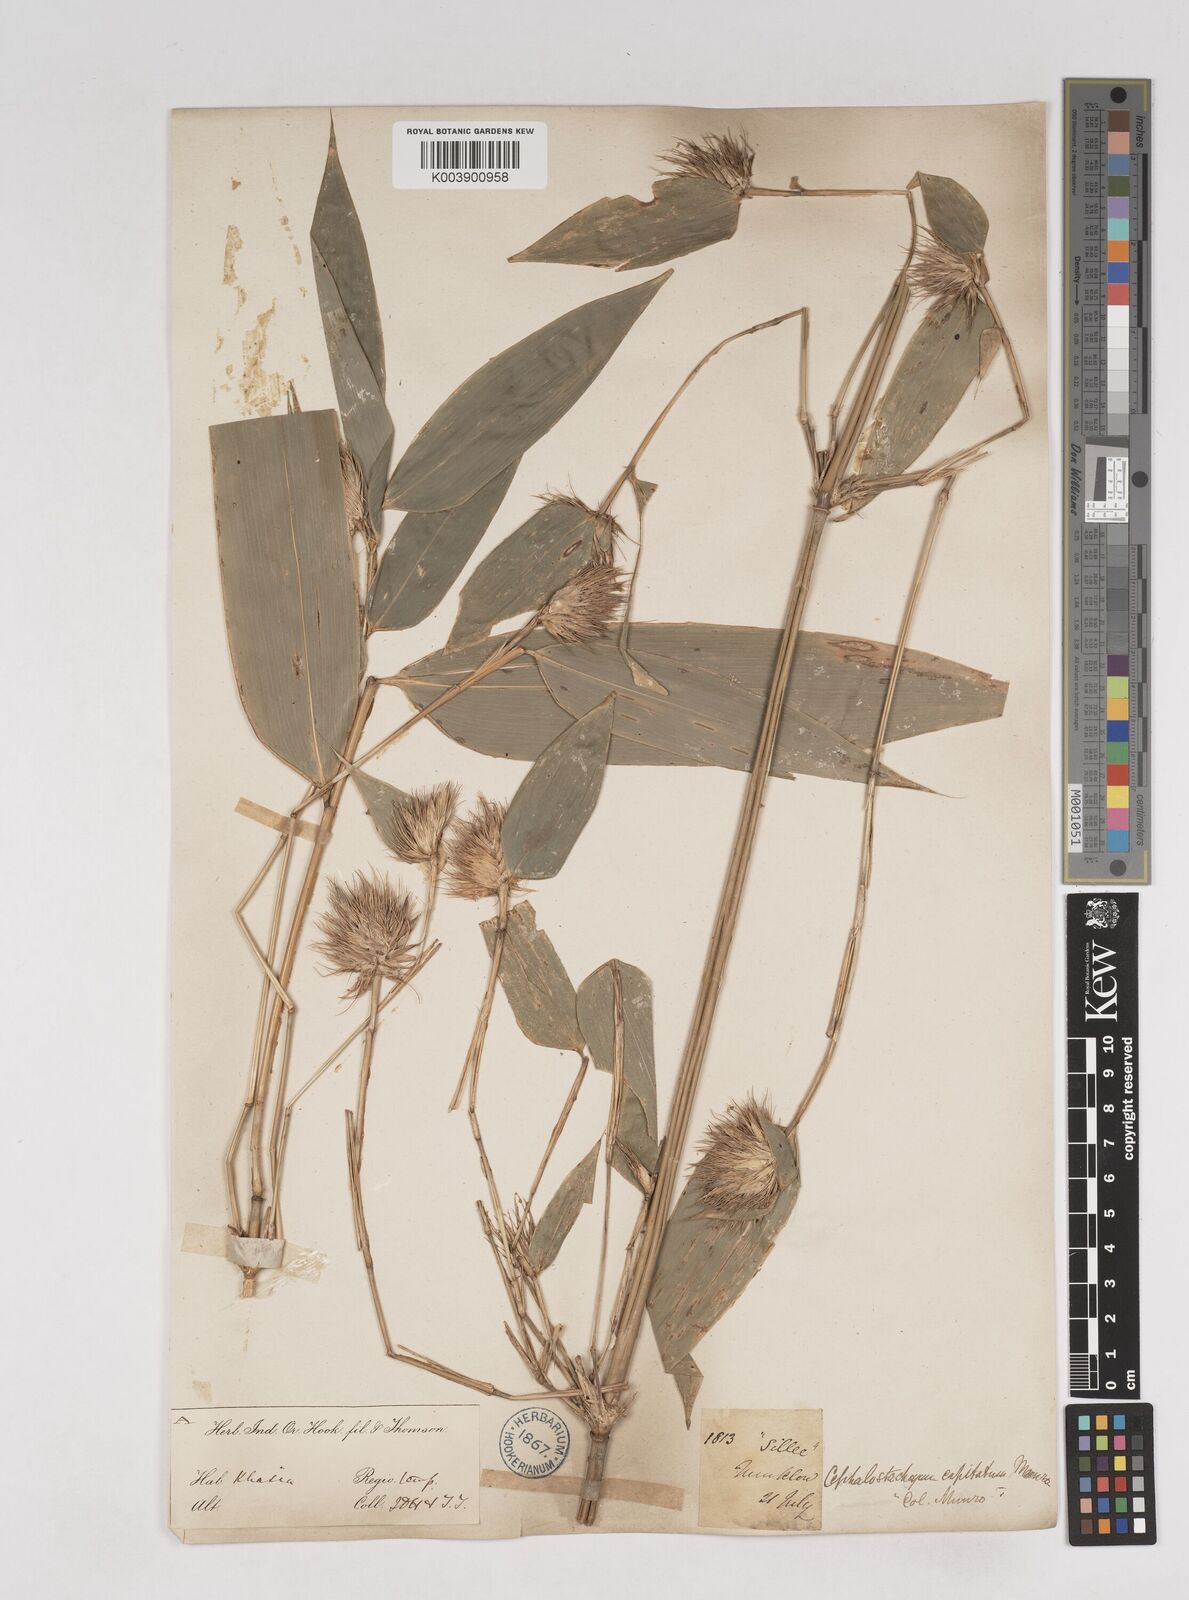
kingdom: Plantae
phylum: Tracheophyta
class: Liliopsida
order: Poales
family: Poaceae
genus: Cephalostachyum
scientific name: Cephalostachyum
